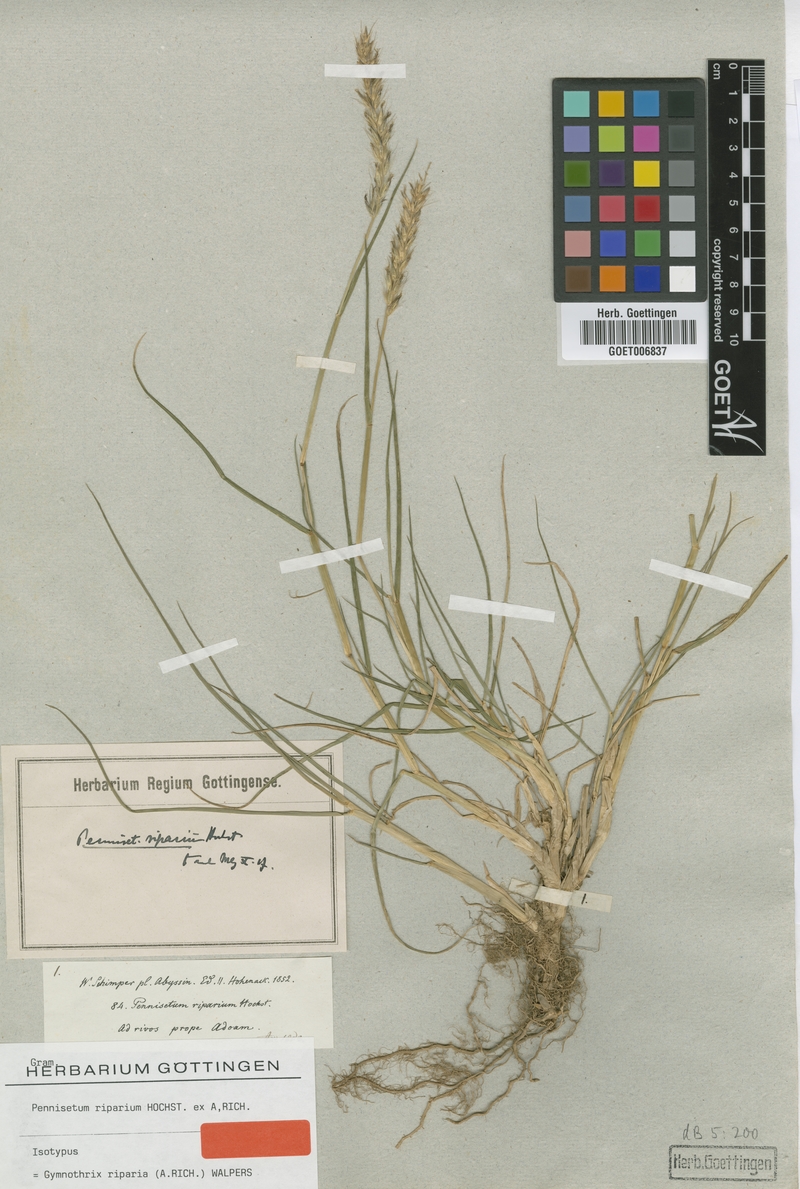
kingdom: Plantae
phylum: Tracheophyta
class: Liliopsida
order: Poales
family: Poaceae
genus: Cenchrus
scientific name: Cenchrus riparius
